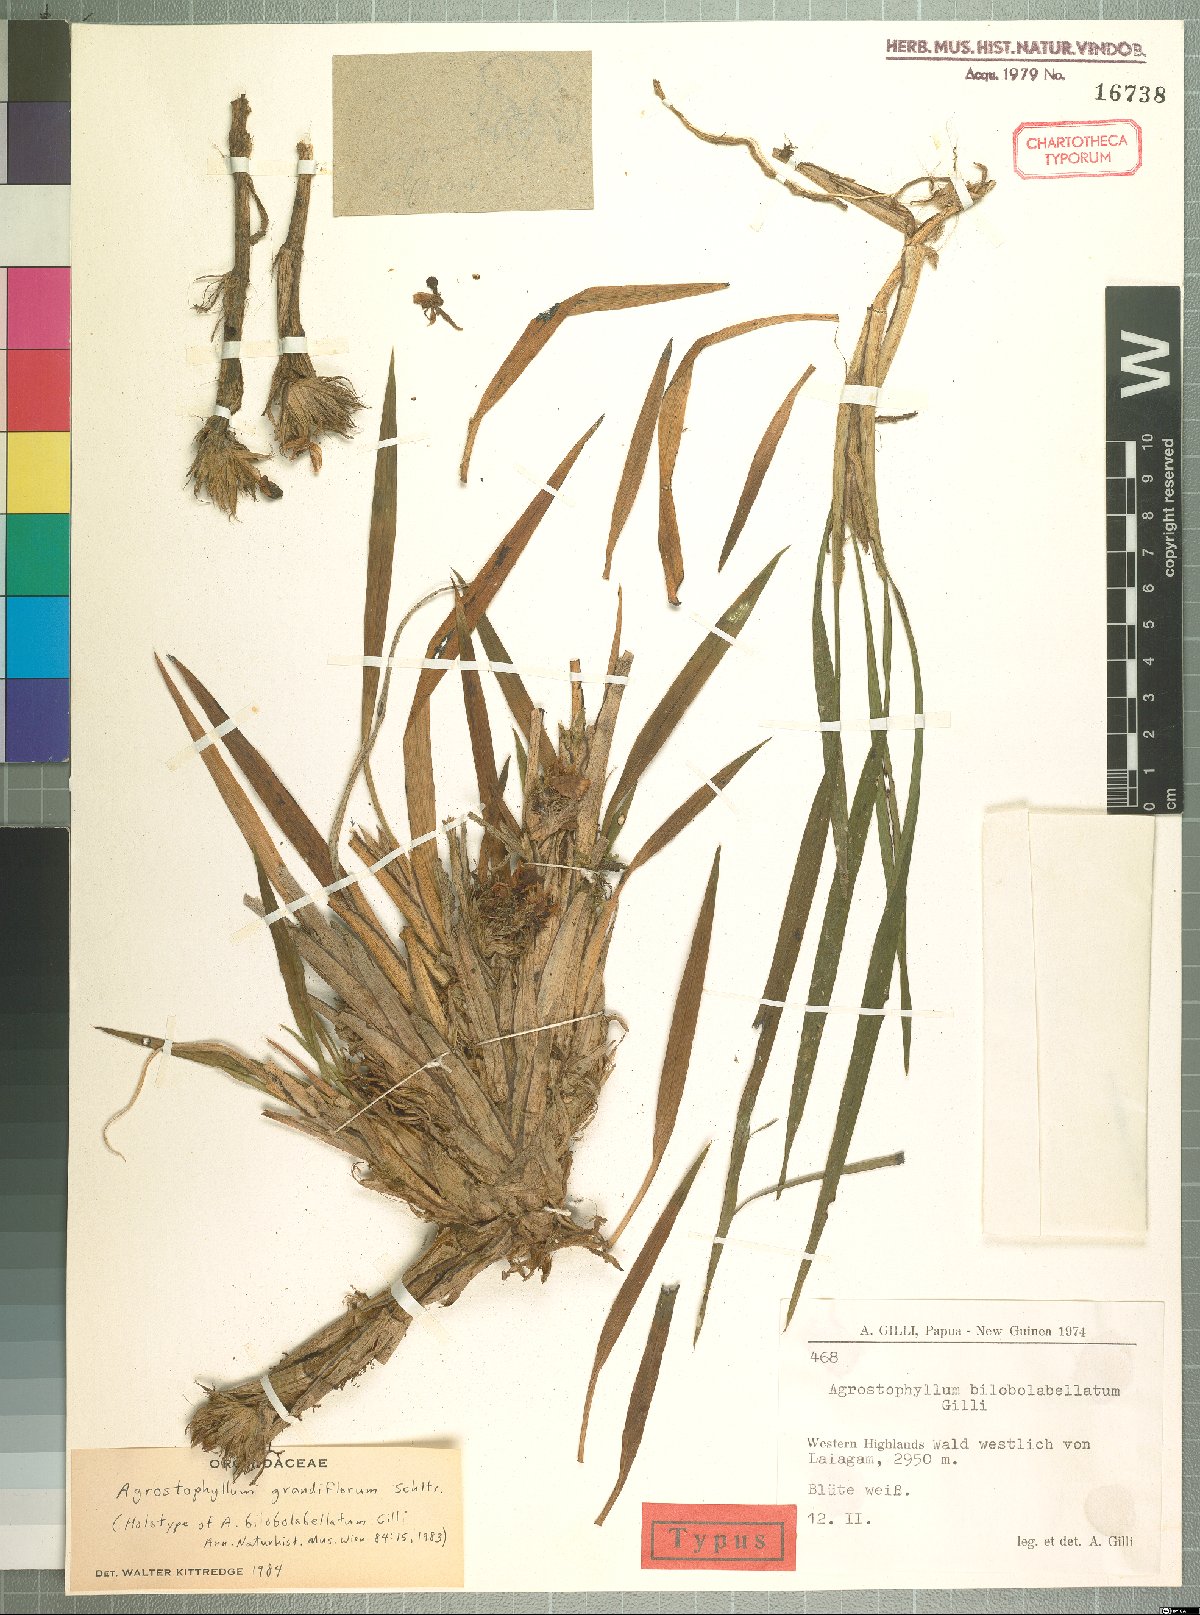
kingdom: Plantae
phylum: Tracheophyta
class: Liliopsida
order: Asparagales
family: Orchidaceae
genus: Agrostophyllum
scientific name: Agrostophyllum grandiflorum
